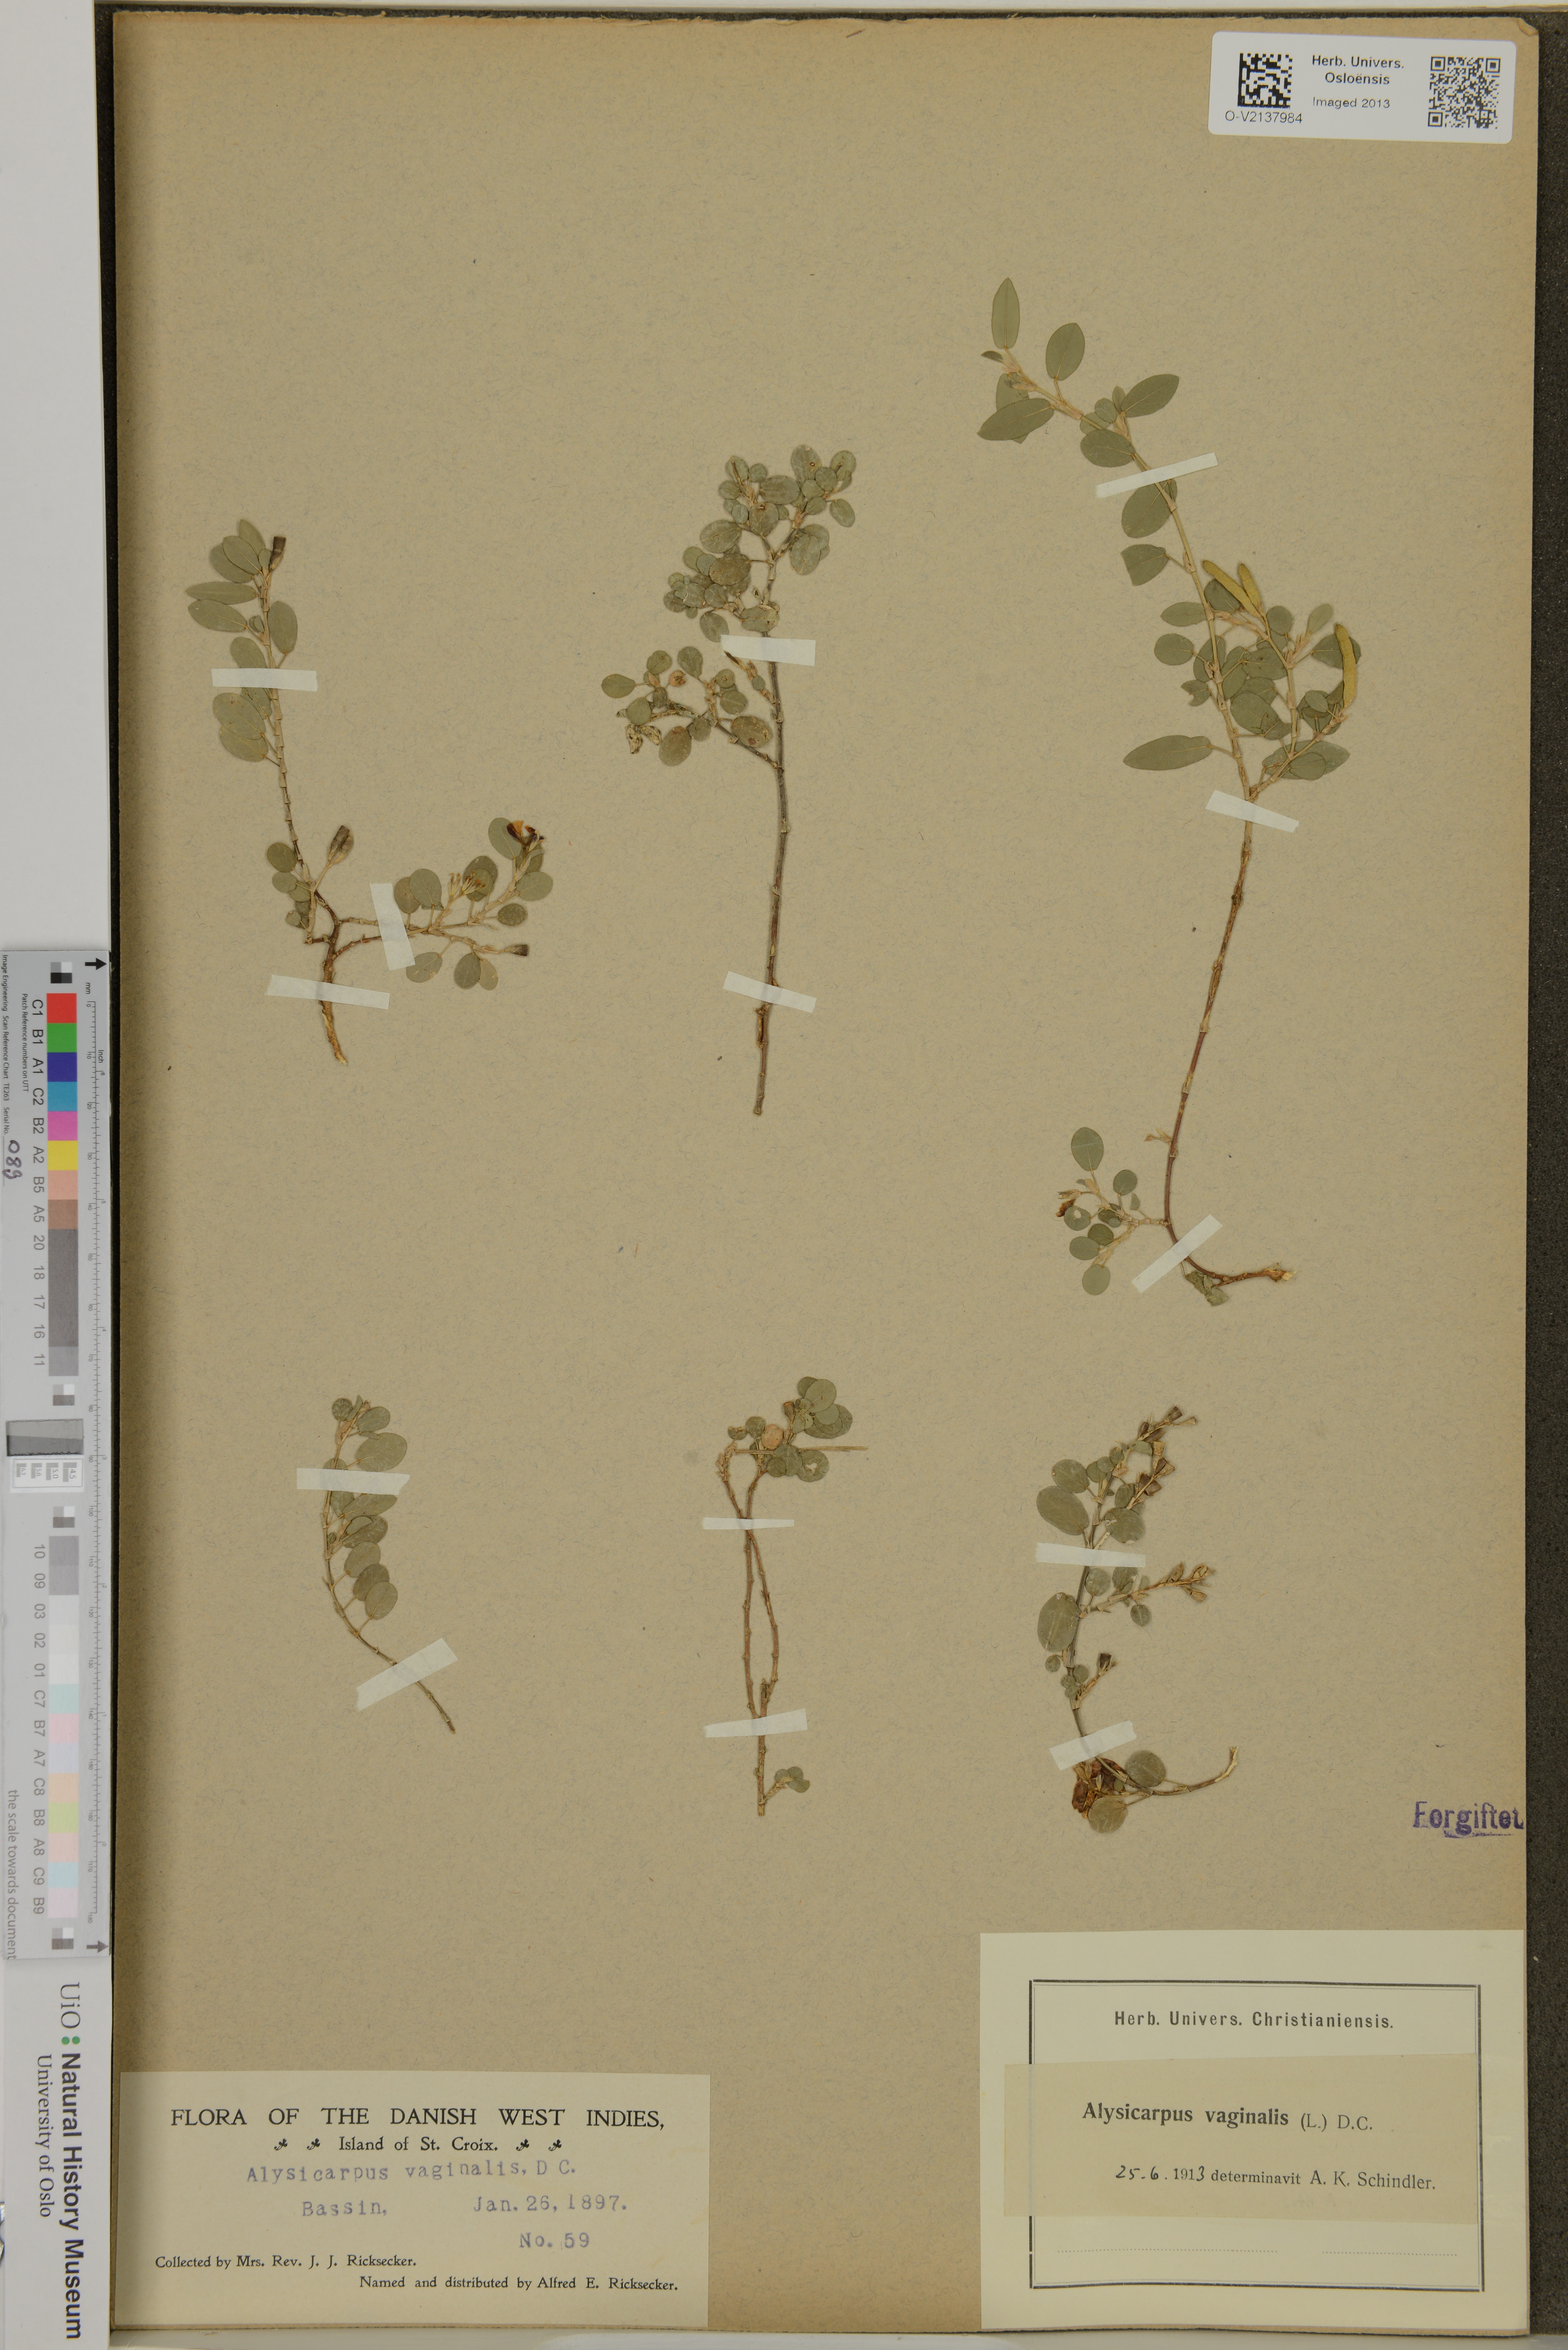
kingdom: Plantae
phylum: Tracheophyta
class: Magnoliopsida
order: Fabales
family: Fabaceae
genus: Alysicarpus
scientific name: Alysicarpus vaginalis
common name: White moneywort
